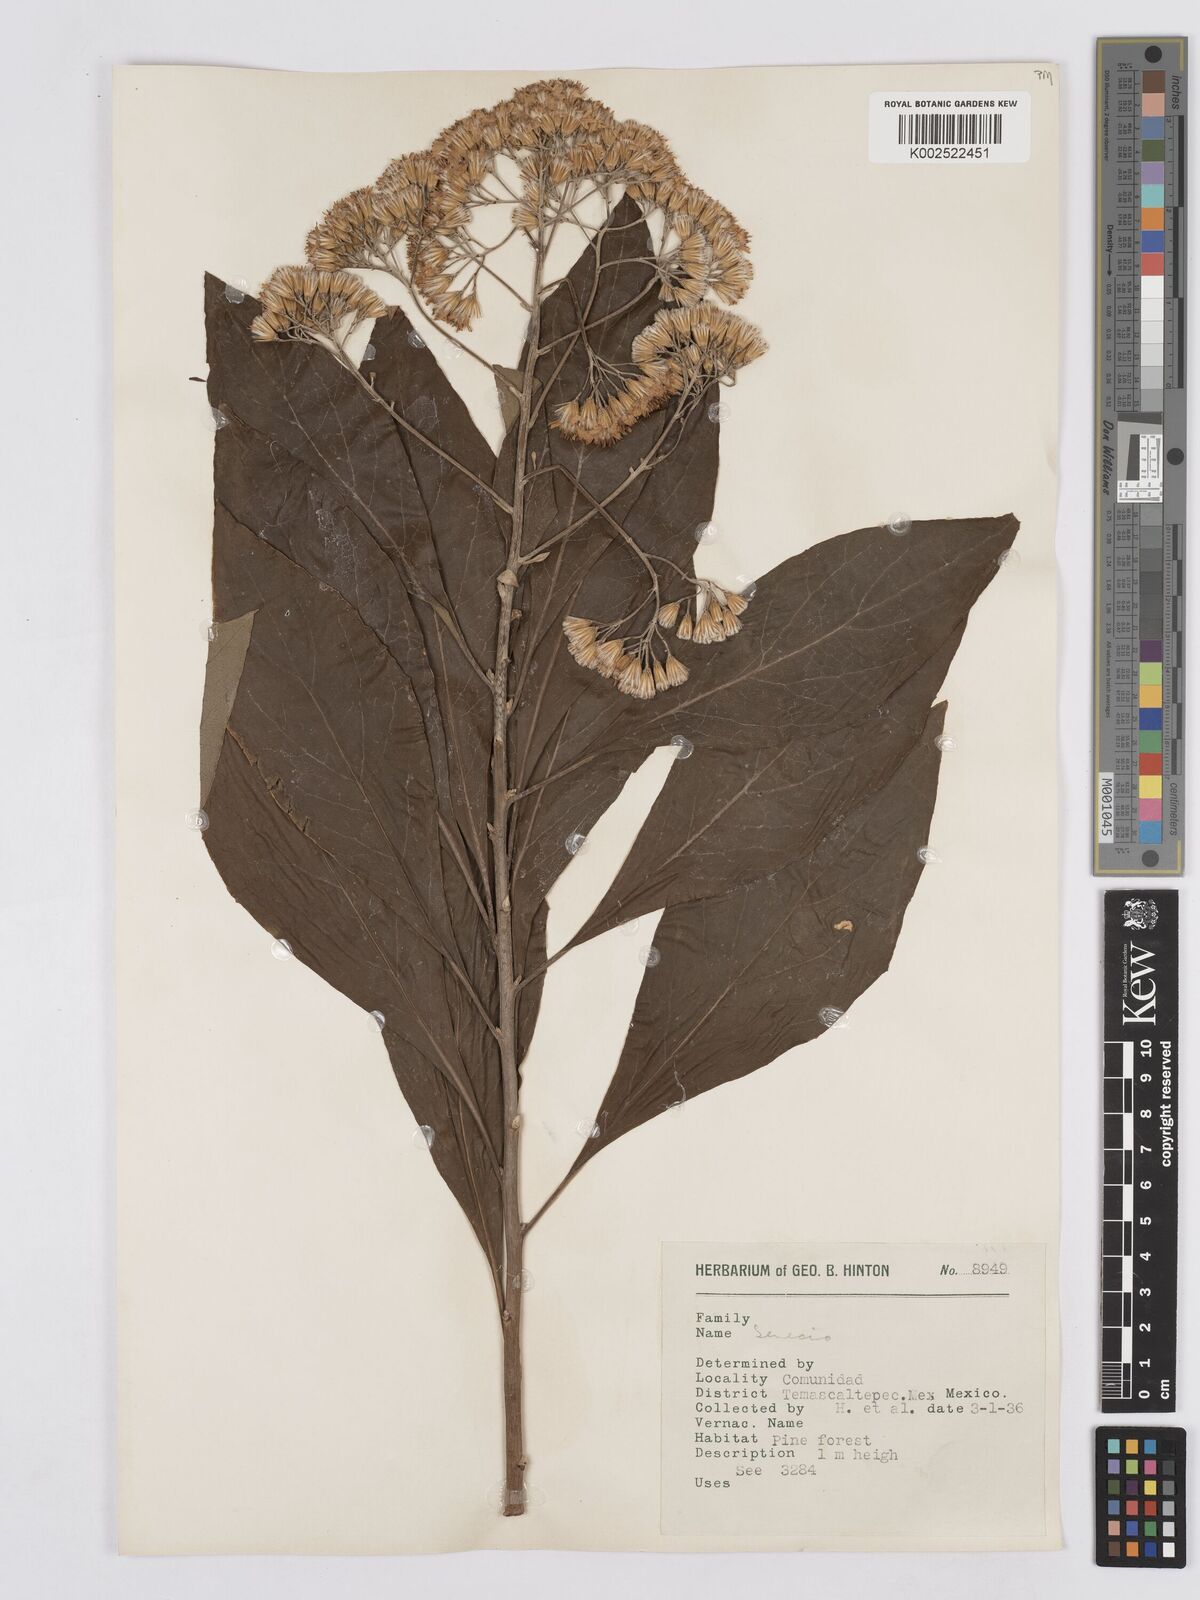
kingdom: Plantae
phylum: Tracheophyta
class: Magnoliopsida
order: Asterales
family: Asteraceae
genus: Roldana
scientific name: Roldana hintonii
